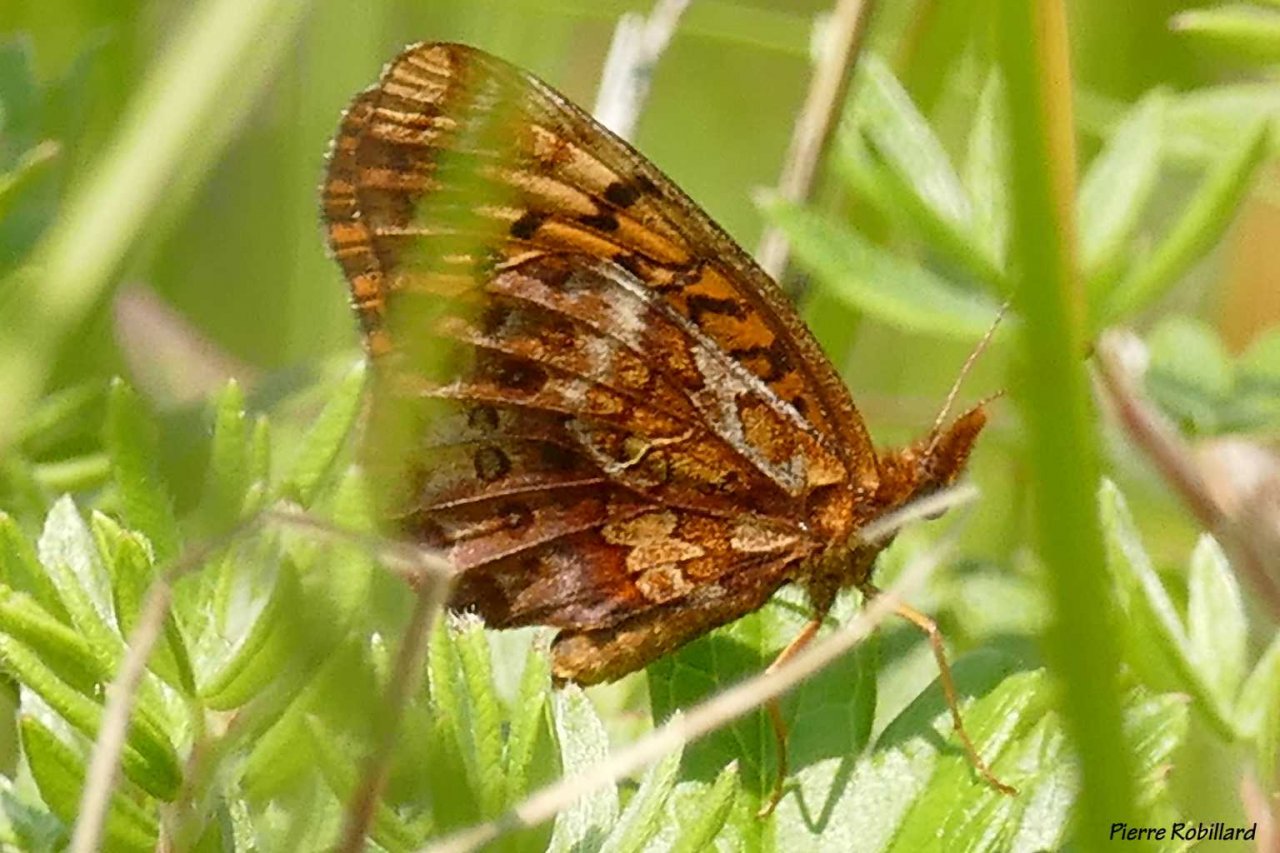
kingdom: Animalia
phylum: Arthropoda
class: Insecta
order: Lepidoptera
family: Nymphalidae
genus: Clossiana
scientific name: Clossiana toddi
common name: Meadow Fritillary
